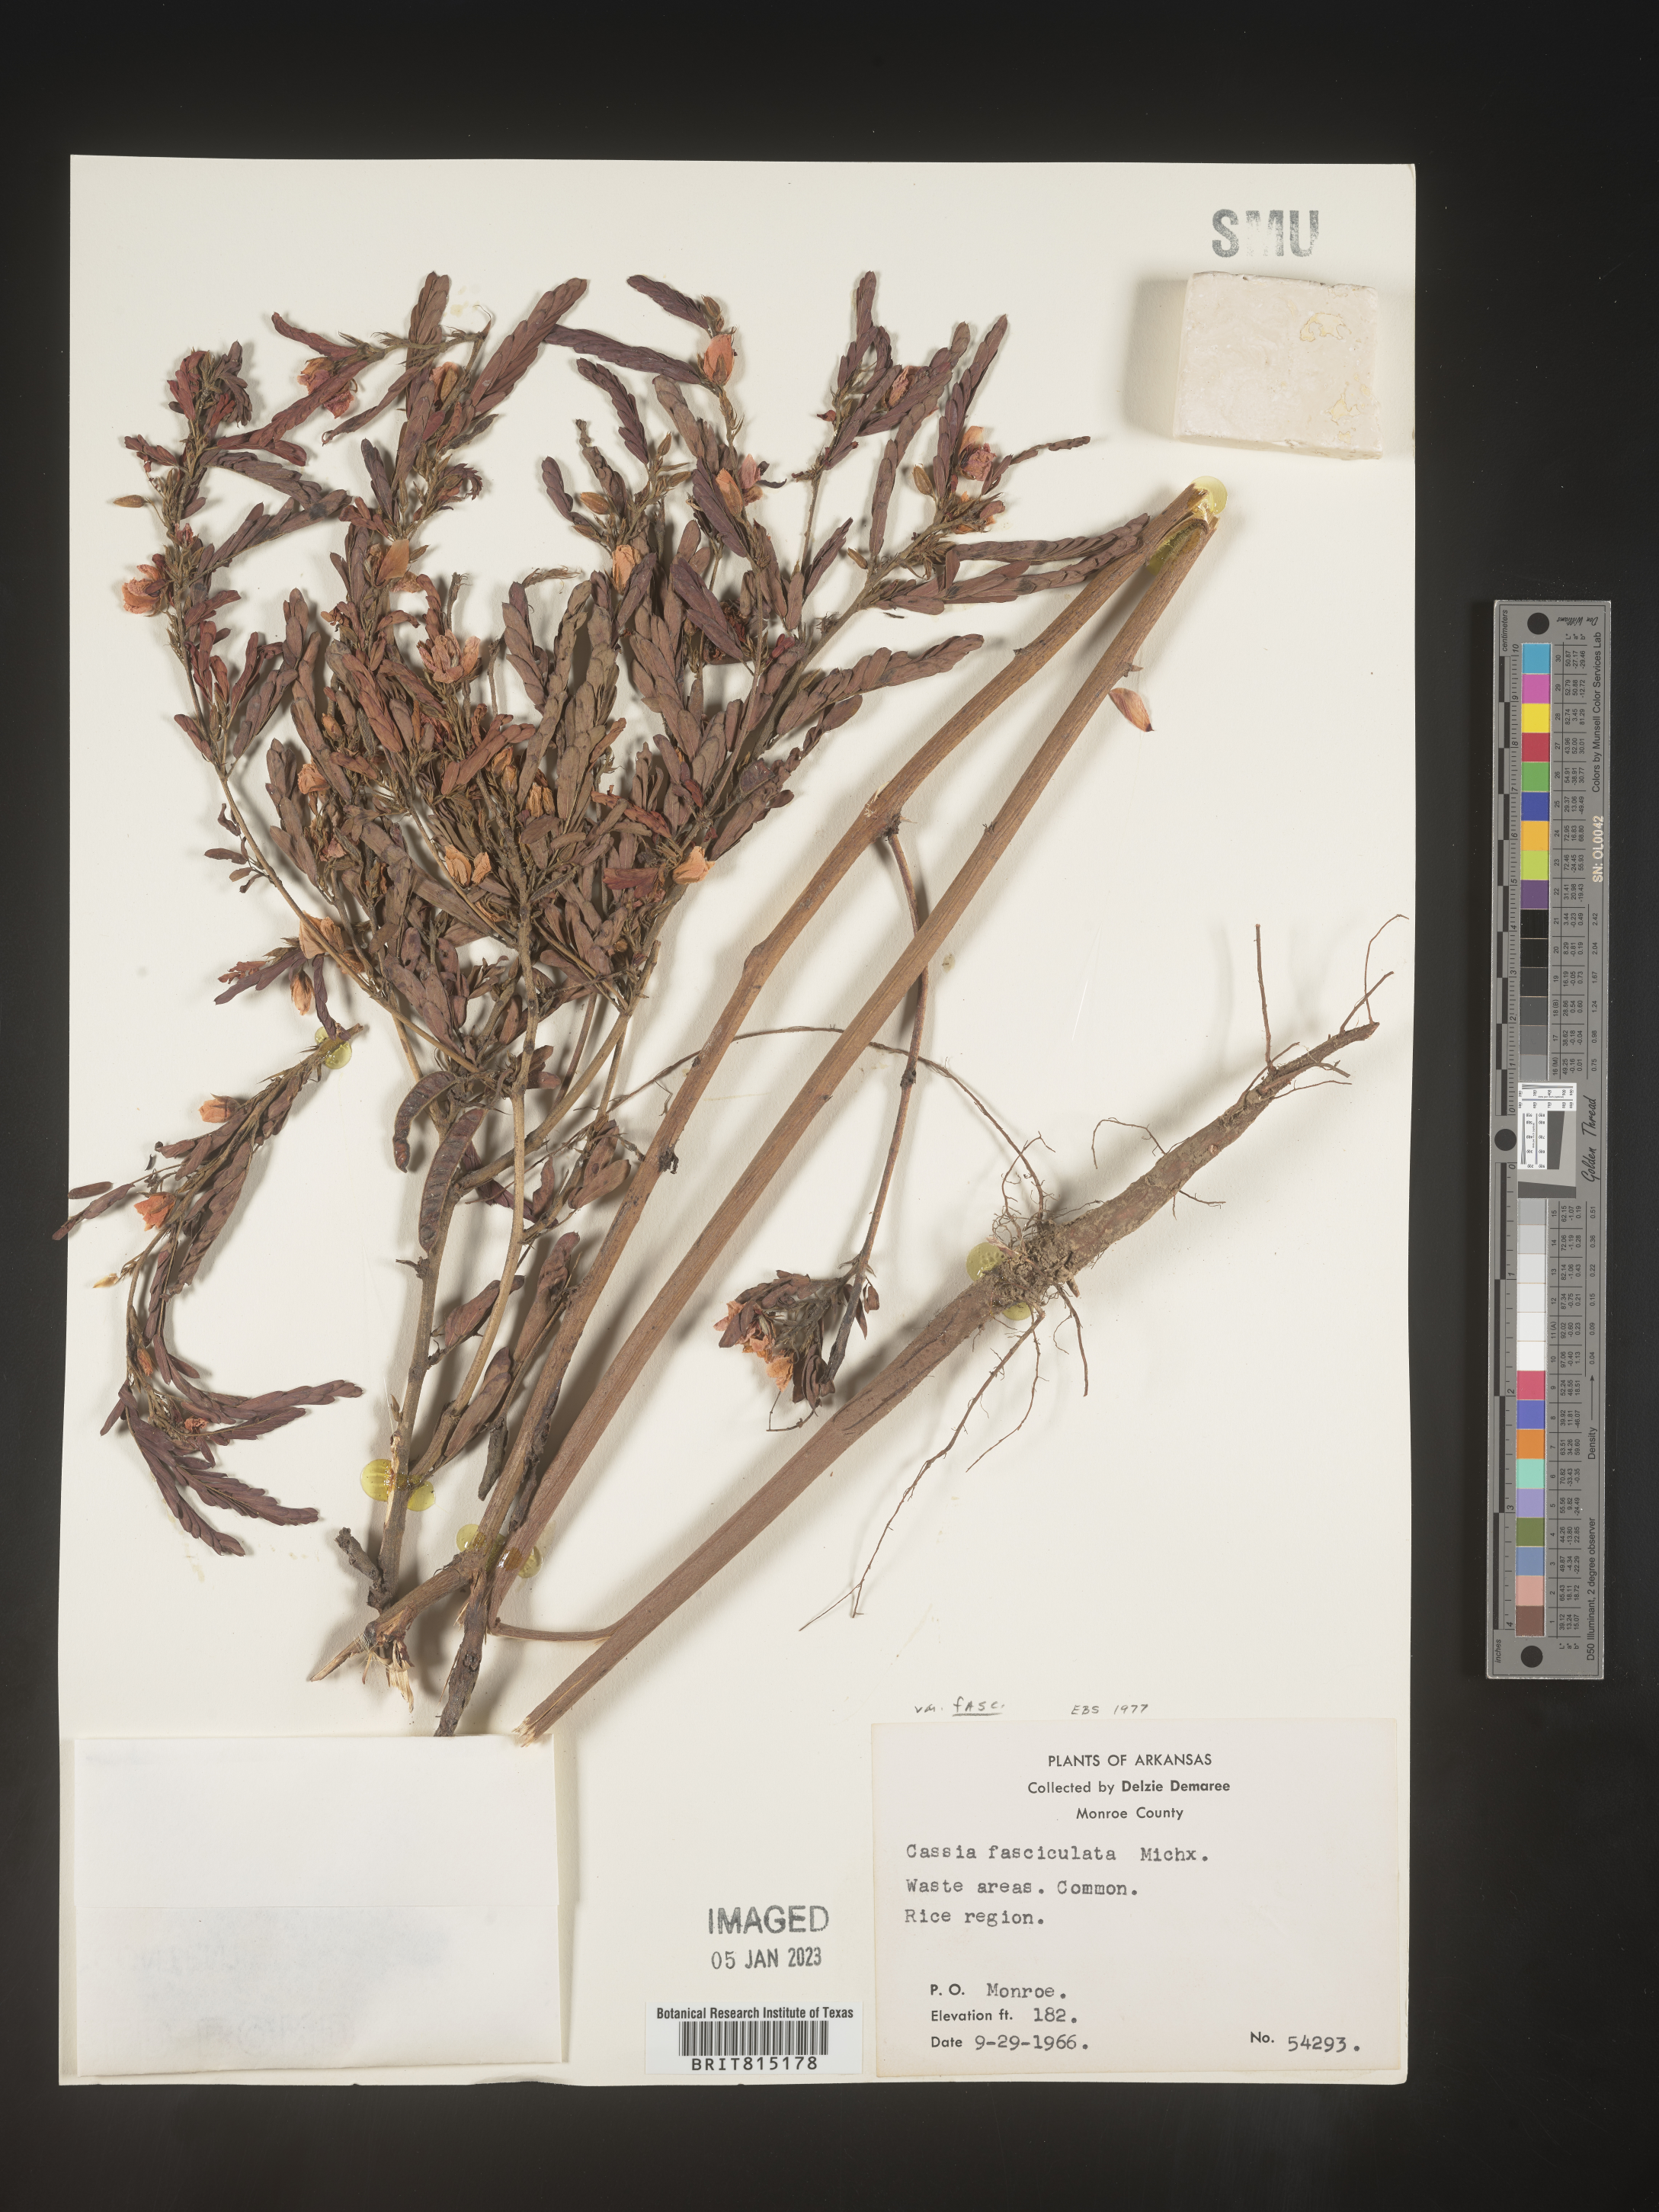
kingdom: Plantae
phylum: Tracheophyta
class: Magnoliopsida
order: Fabales
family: Fabaceae
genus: Chamaecrista
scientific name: Chamaecrista fasciculata
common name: Golden cassia
